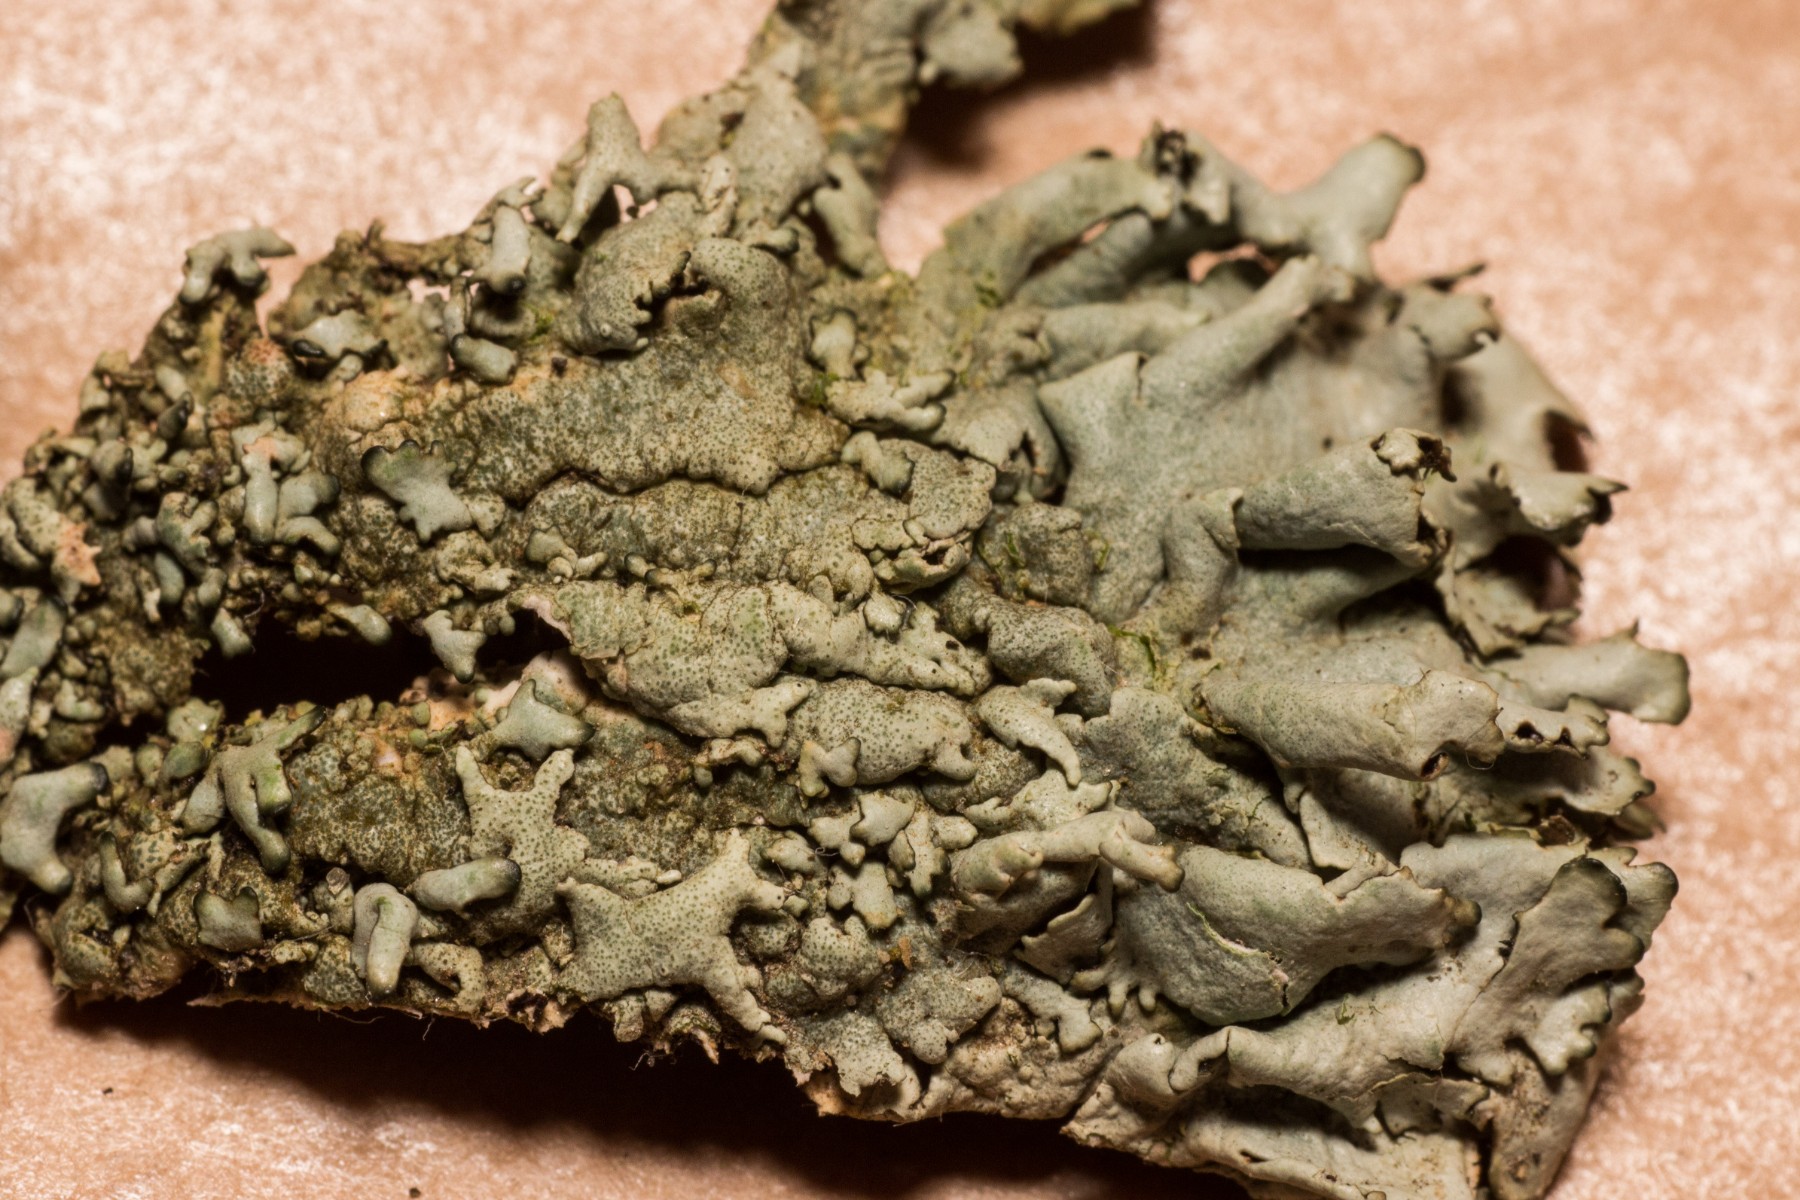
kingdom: Fungi
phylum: Ascomycota
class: Lecanoromycetes
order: Lecanorales
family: Parmeliaceae
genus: Xanthoparmelia
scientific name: Xanthoparmelia stenophylla
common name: Shingled rock shield
